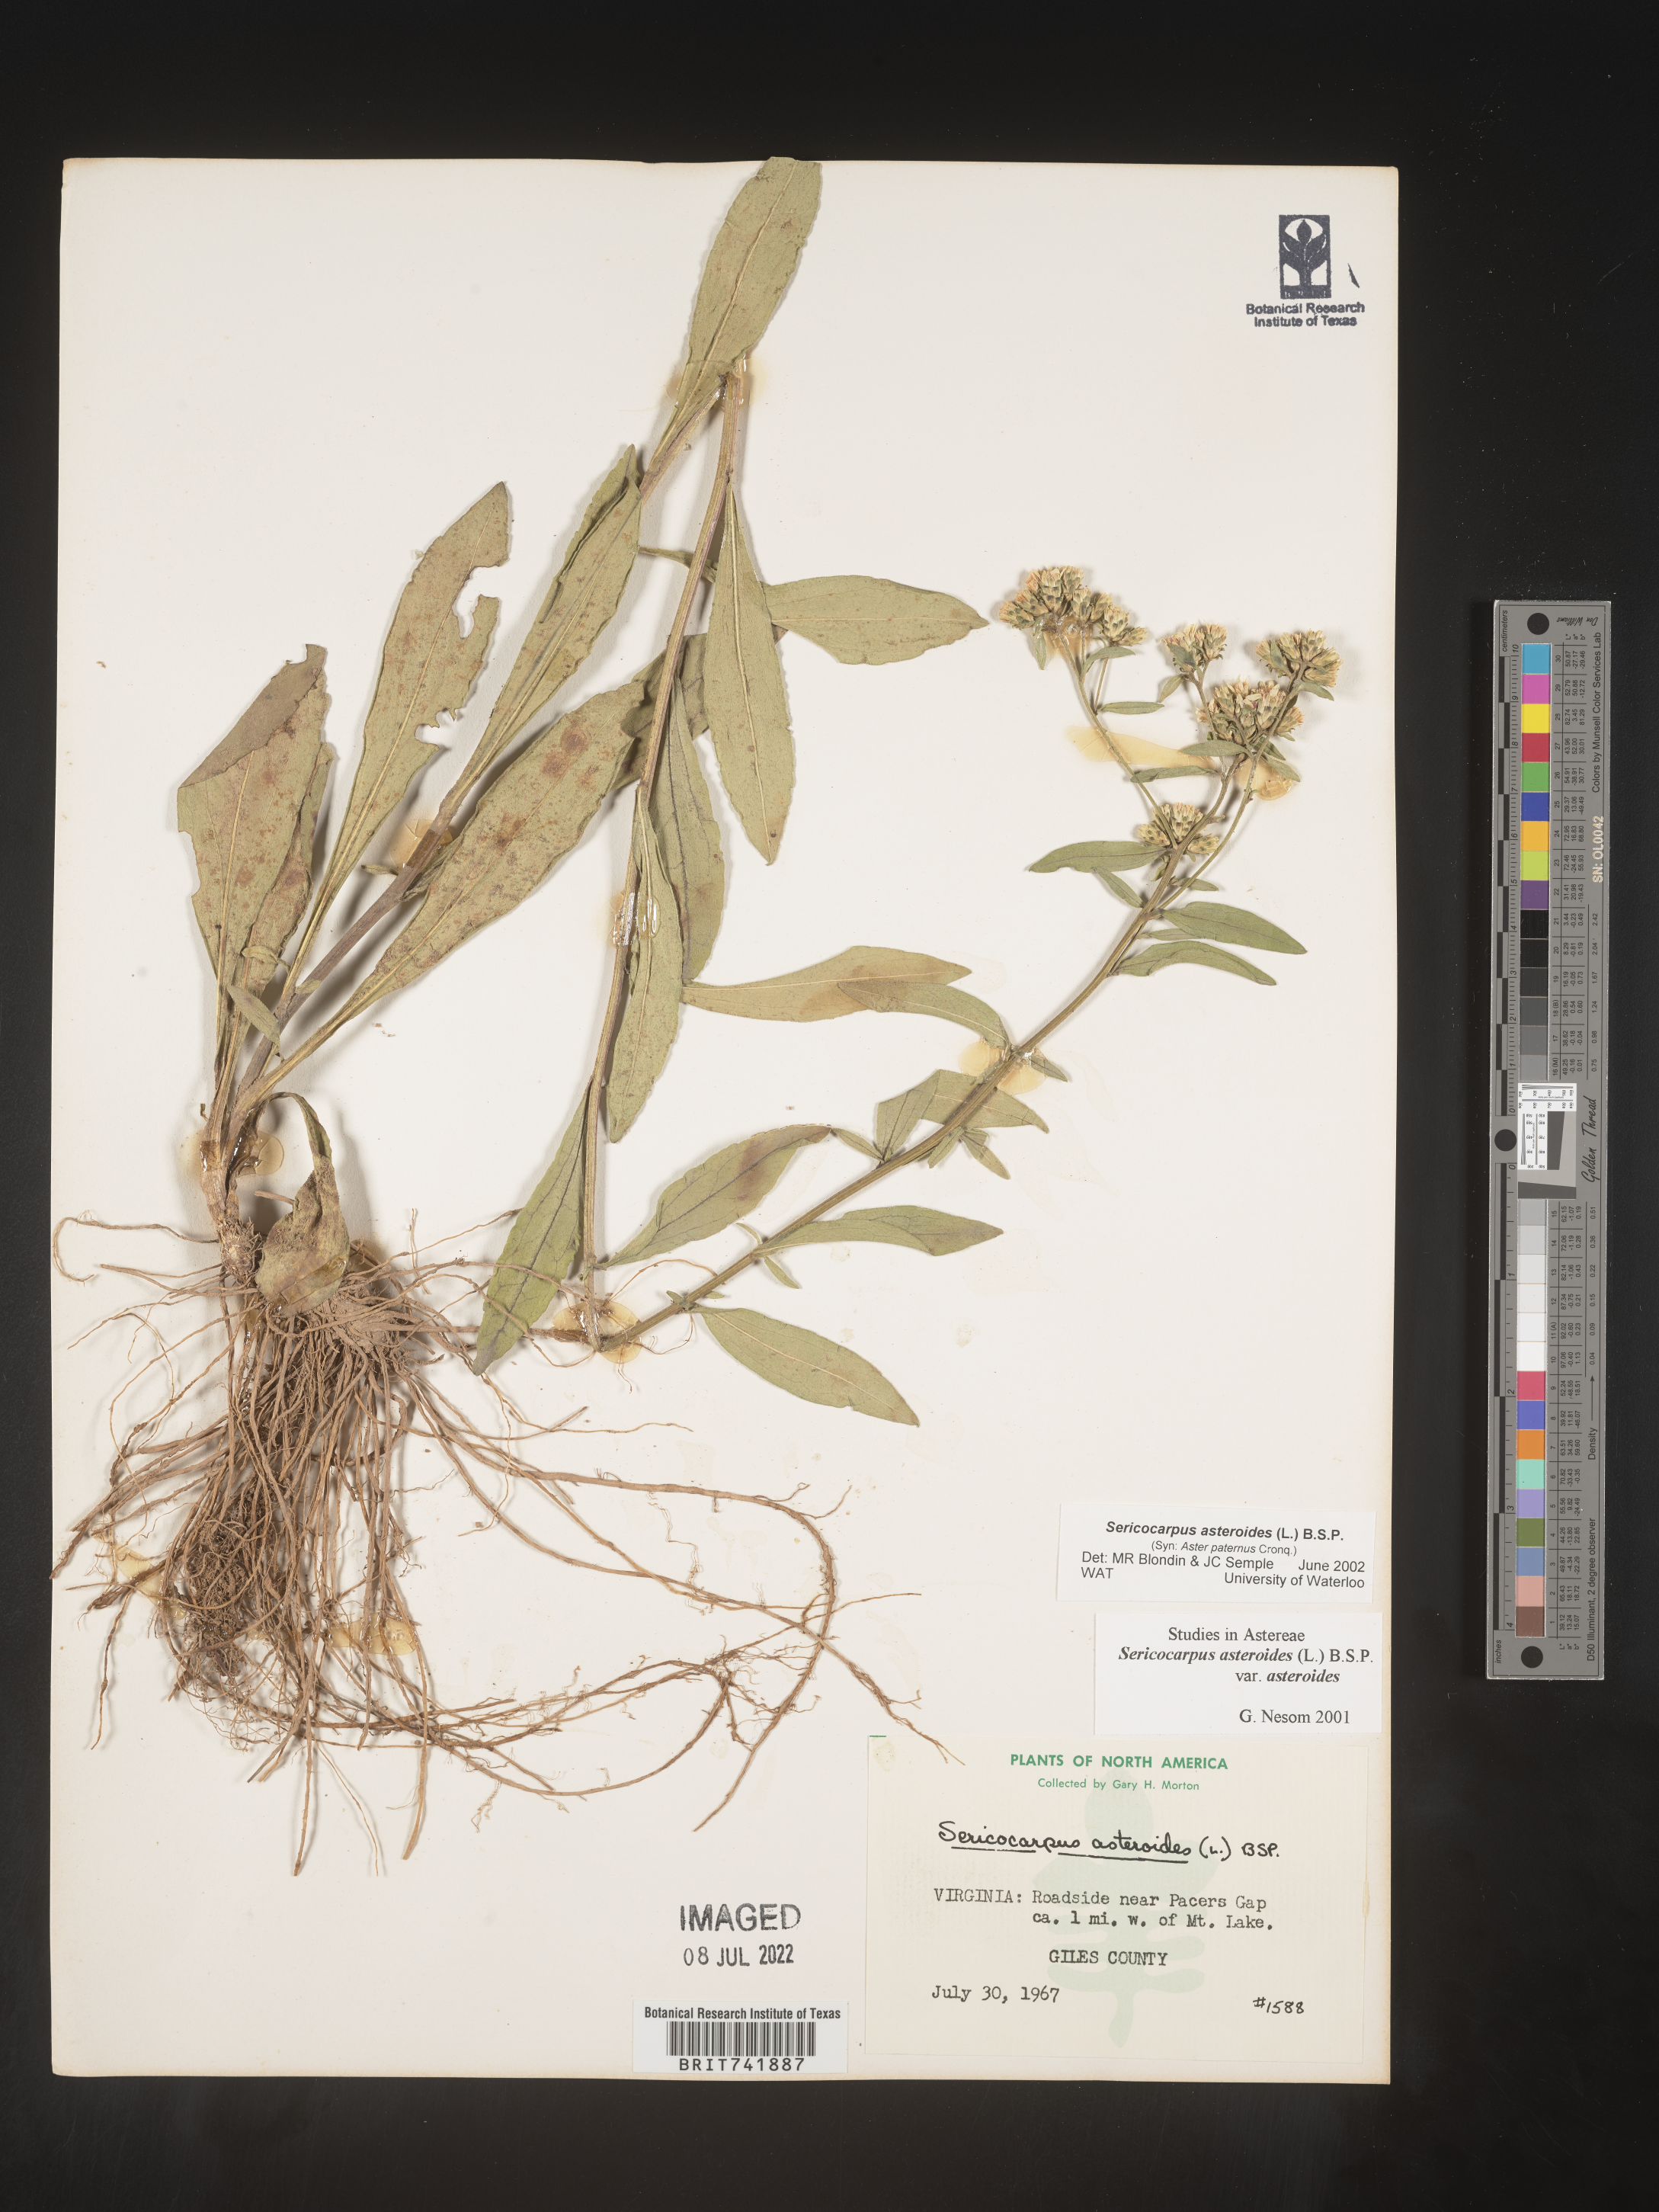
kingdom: Plantae
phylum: Tracheophyta
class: Magnoliopsida
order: Asterales
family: Asteraceae
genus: Sericocarpus
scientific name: Sericocarpus asteroides
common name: Toothed white-top aster
